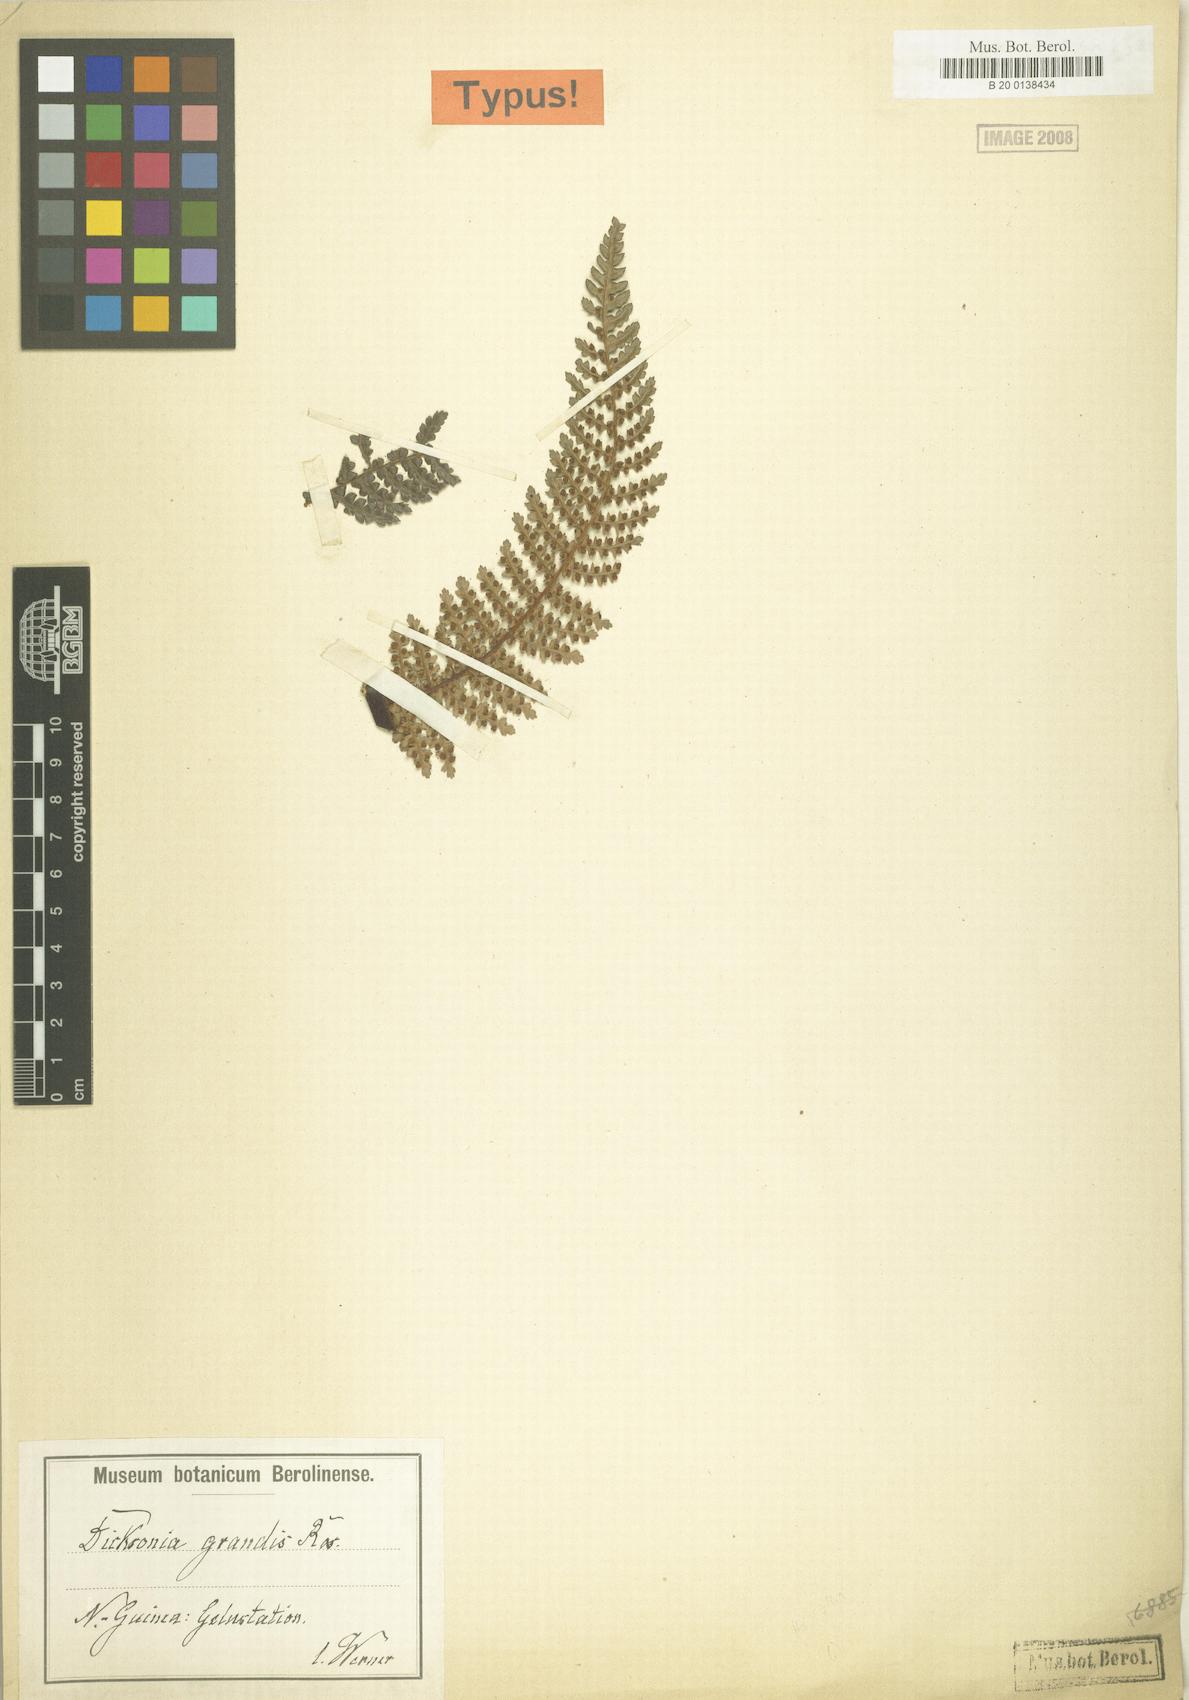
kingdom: Plantae
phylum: Tracheophyta
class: Polypodiopsida
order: Cyatheales
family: Dicksoniaceae
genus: Dicksonia
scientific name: Dicksonia grandis
